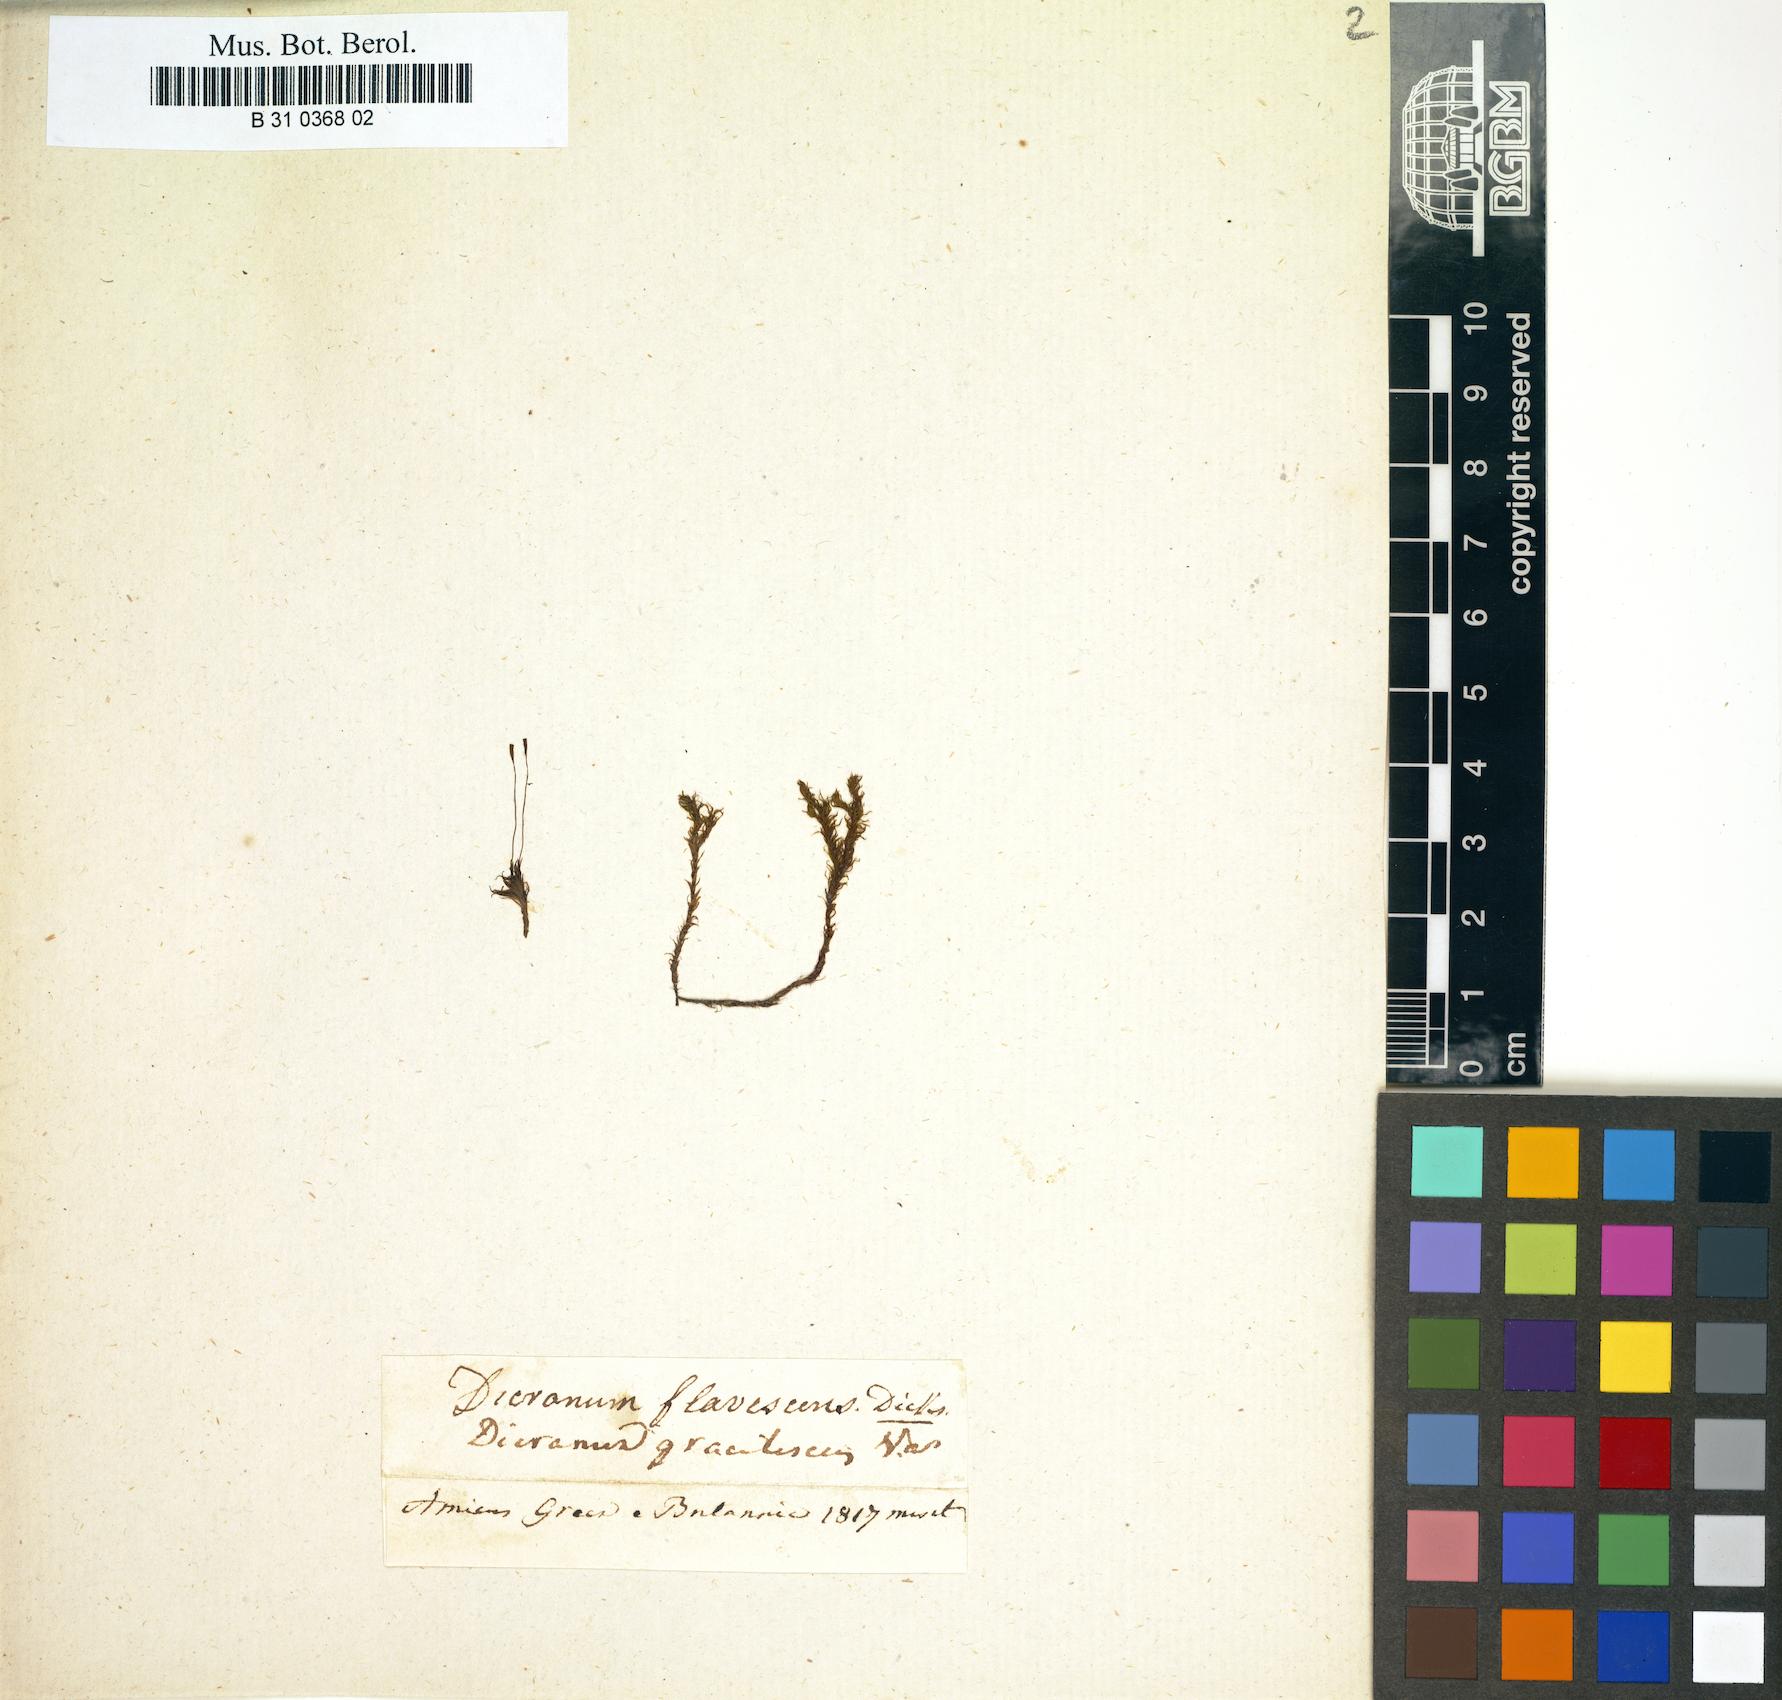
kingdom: Plantae
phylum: Bryophyta
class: Bryopsida
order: Dicranales
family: Rhabdoweisiaceae
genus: Cynodontium
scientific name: Cynodontium gracilescens
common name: Slender dogtooth moss
